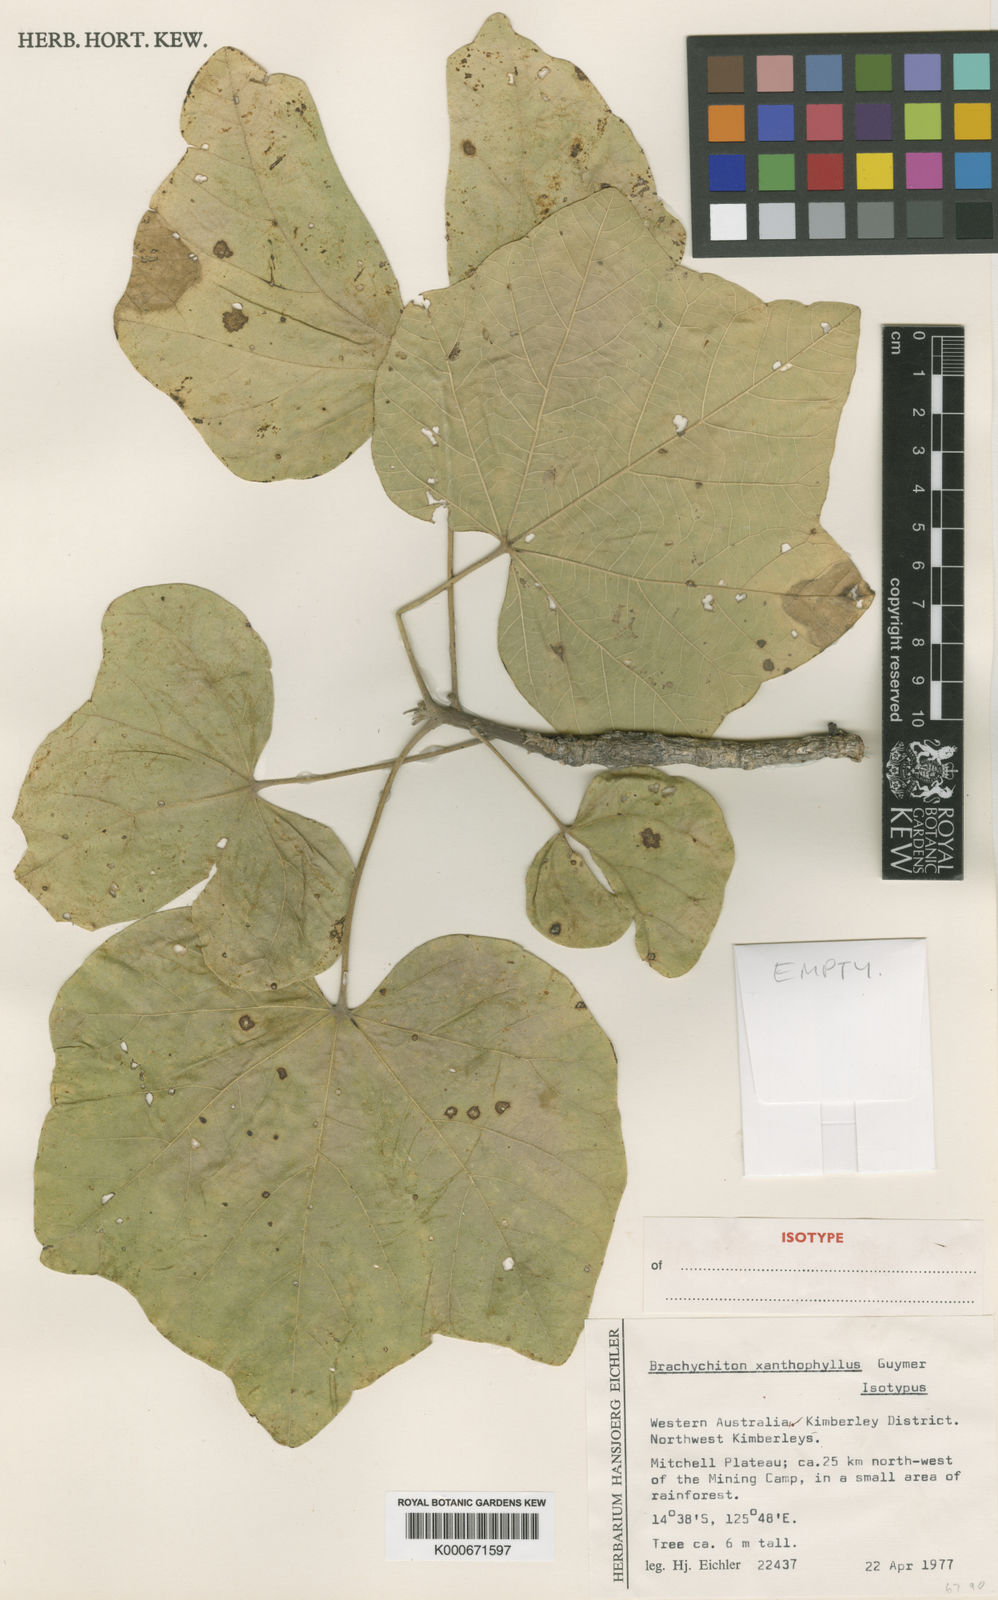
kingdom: Plantae
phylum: Tracheophyta
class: Magnoliopsida
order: Malvales
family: Malvaceae
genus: Brachychiton
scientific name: Brachychiton xanthophyllus
